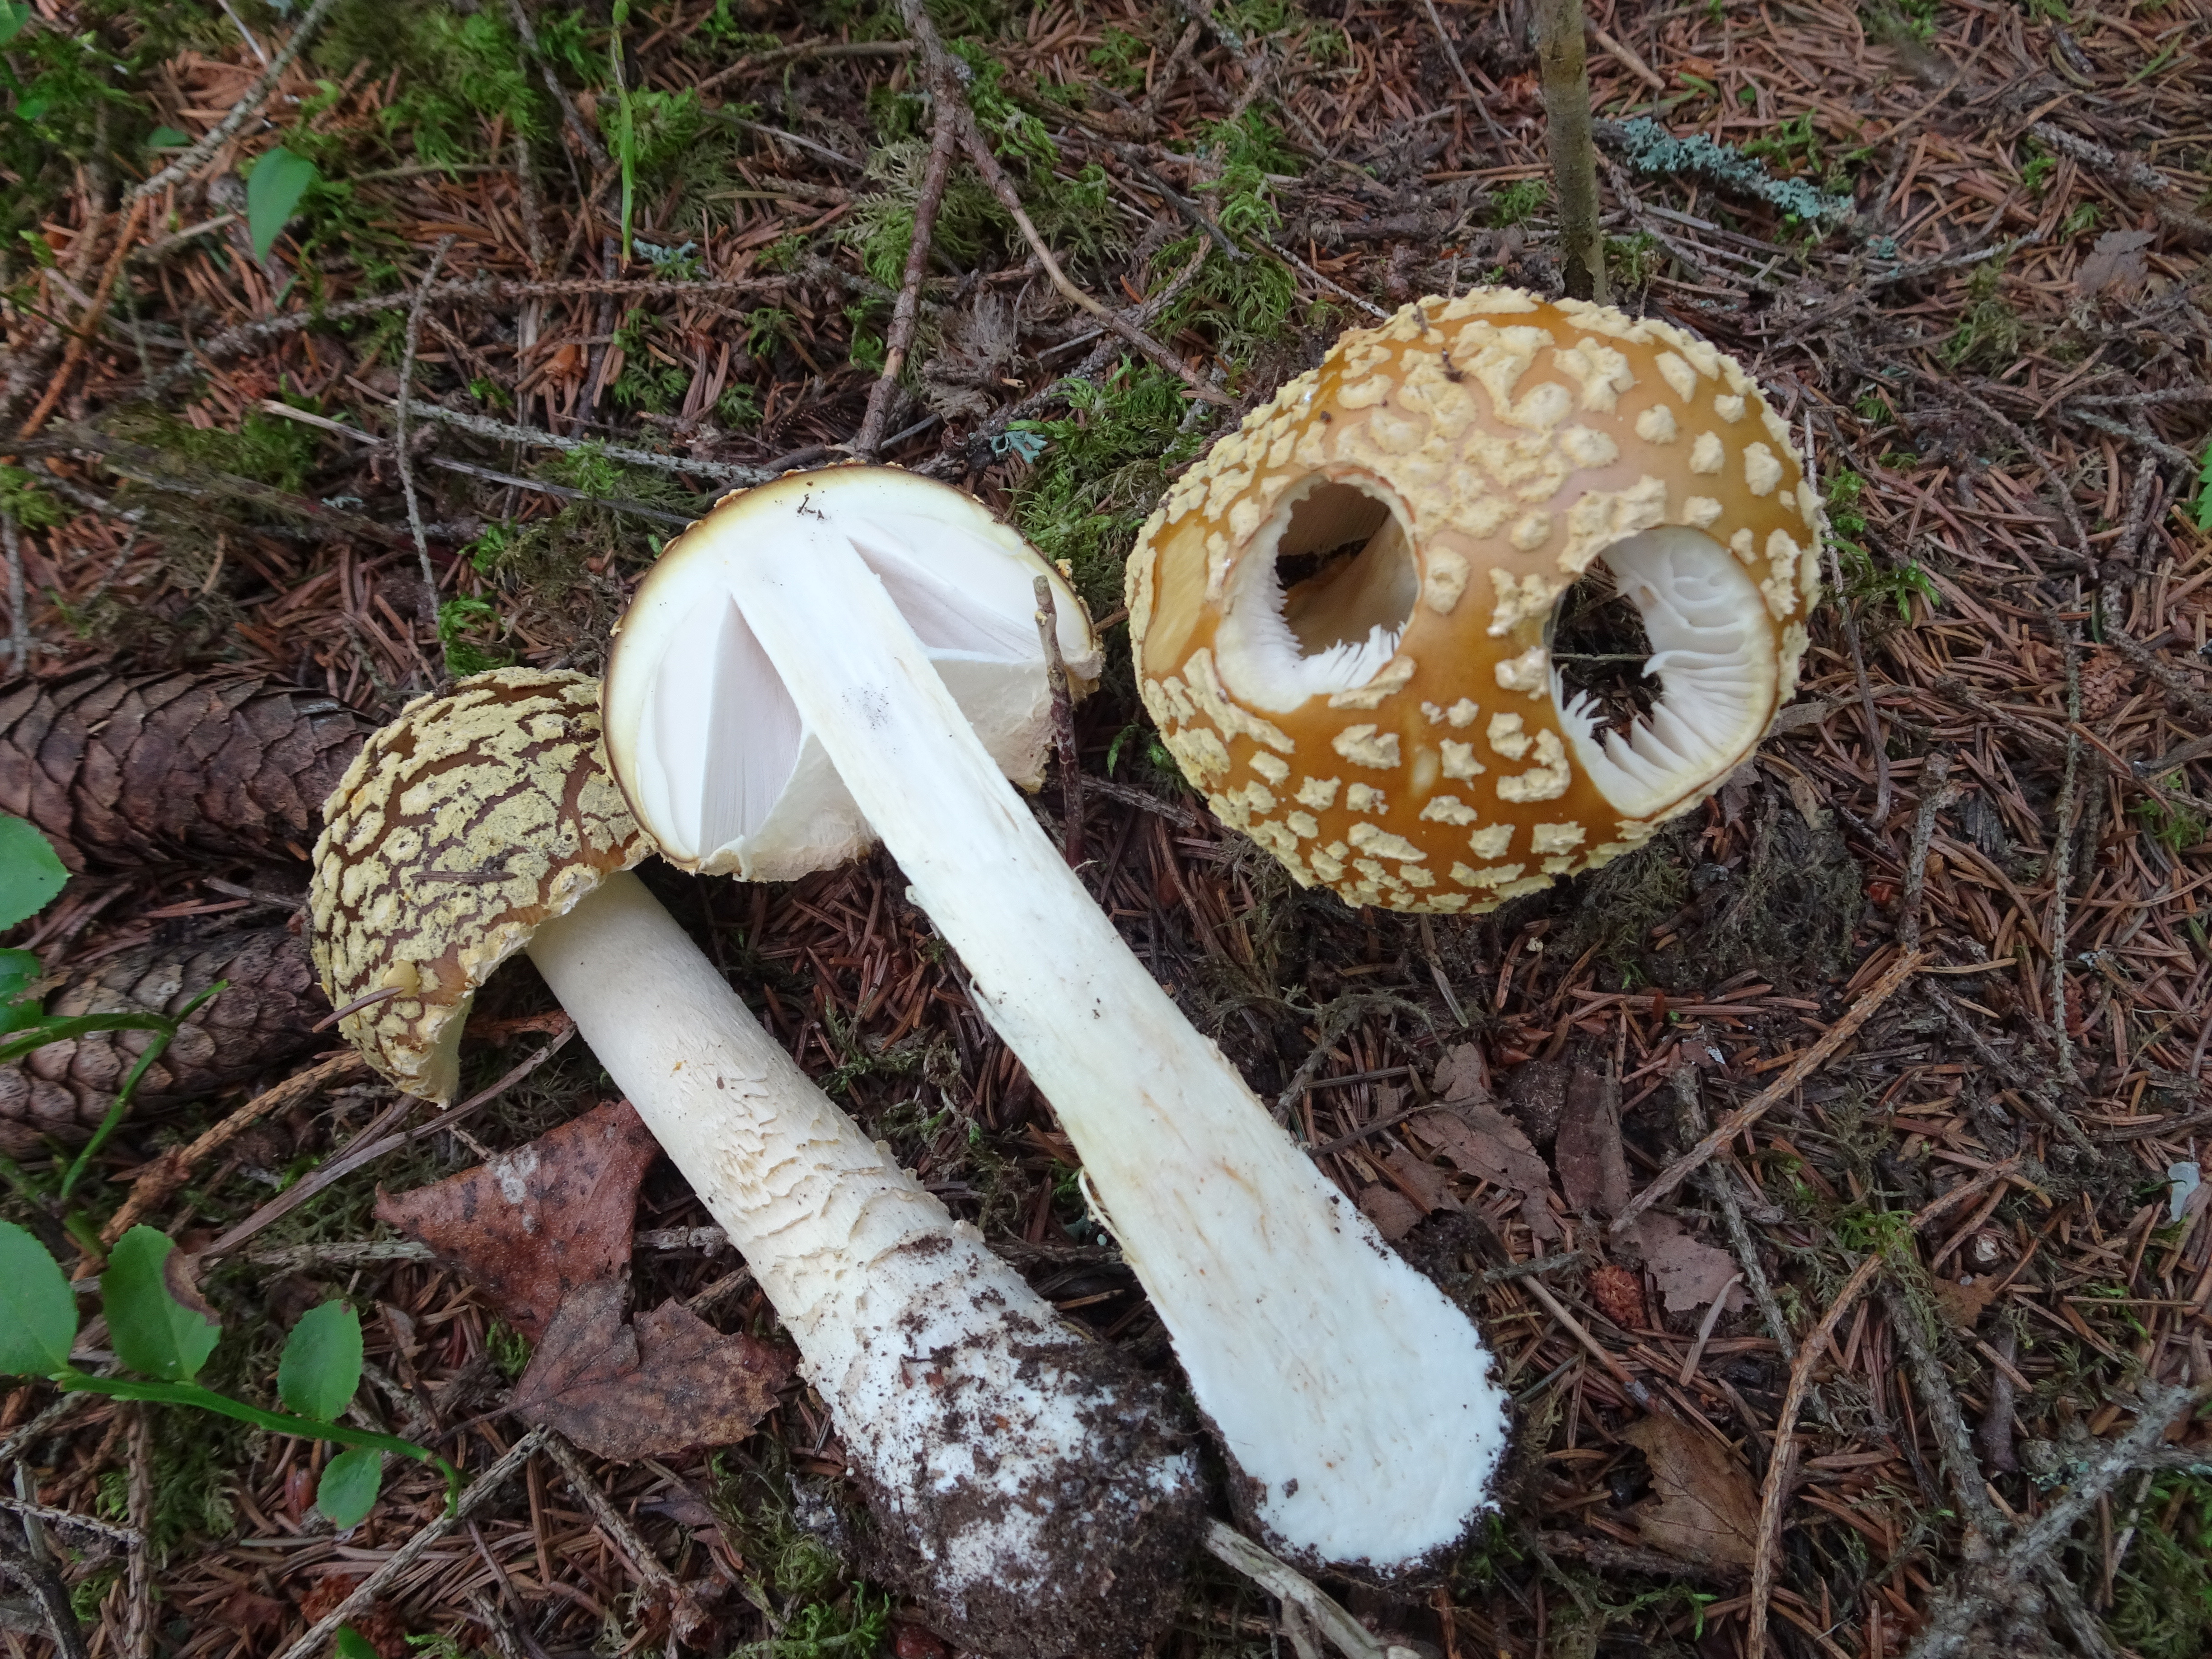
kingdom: Fungi
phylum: Basidiomycota
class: Agaricomycetes
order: Agaricales
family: Amanitaceae
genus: Amanita
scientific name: Amanita regalis
